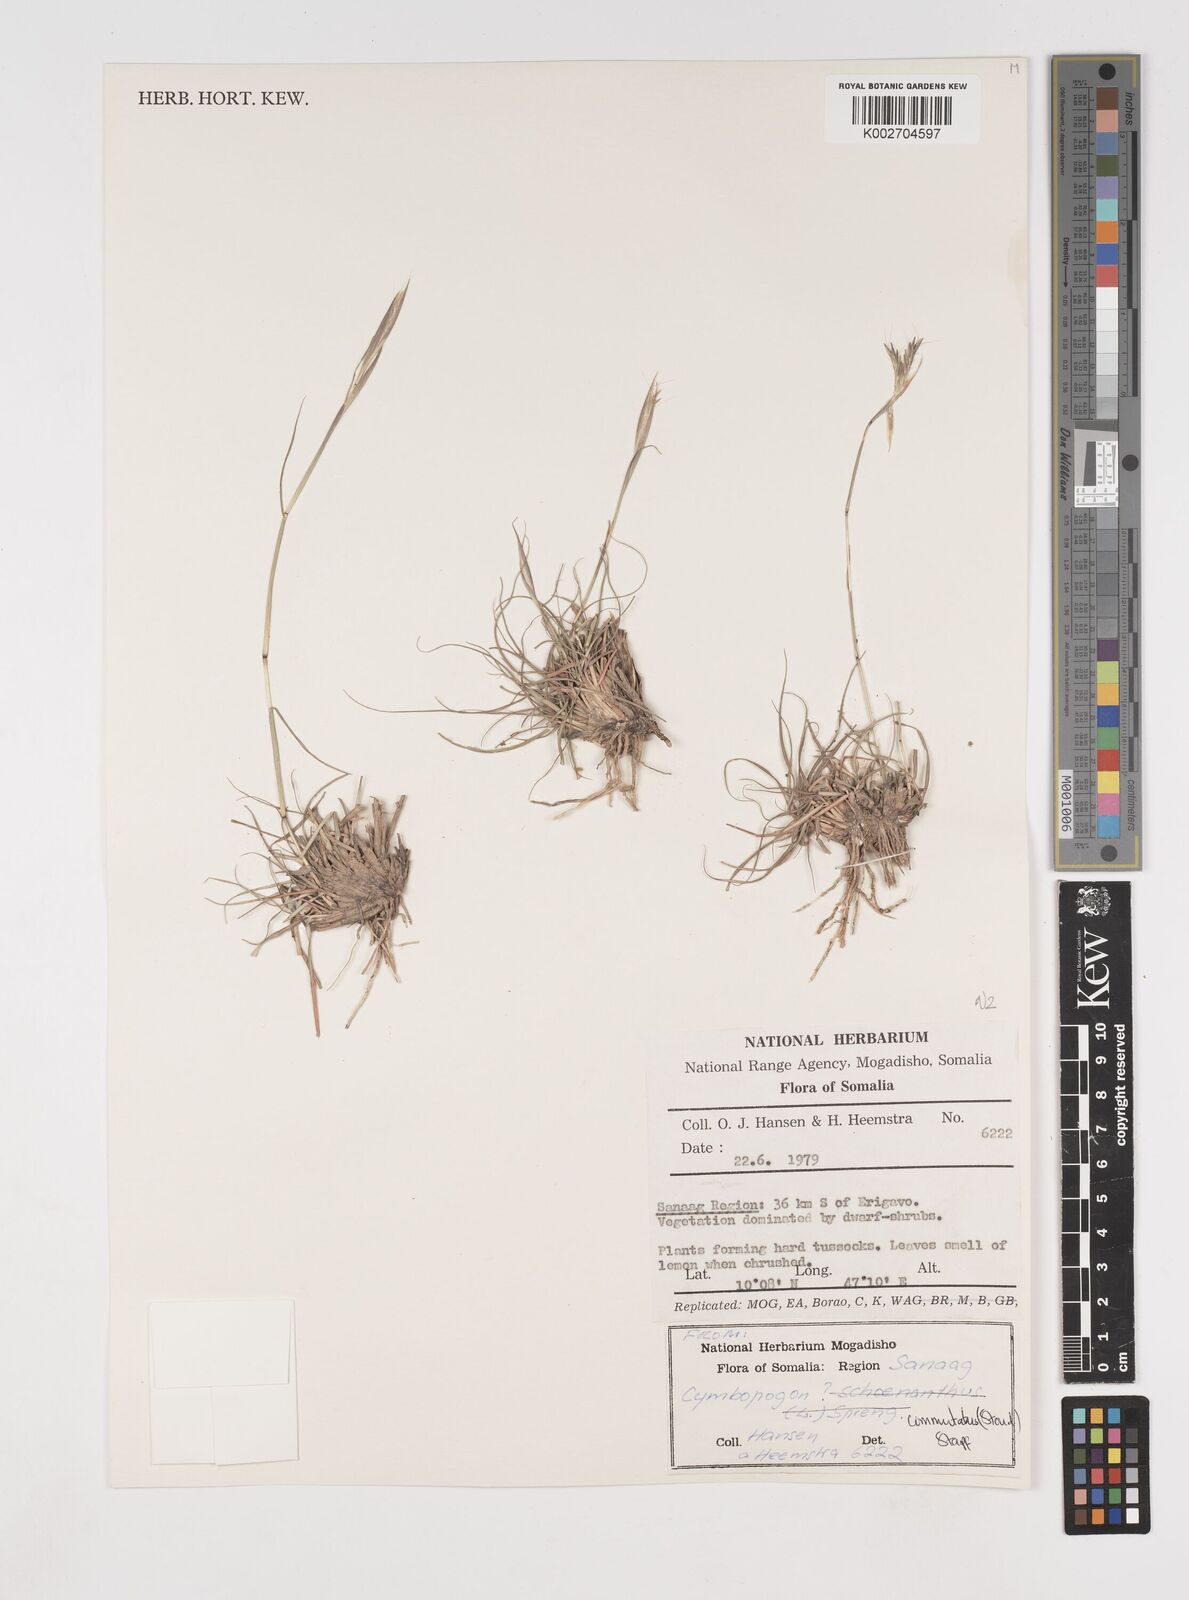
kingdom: Plantae
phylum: Tracheophyta
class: Liliopsida
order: Poales
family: Poaceae
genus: Cymbopogon
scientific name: Cymbopogon commutatus
